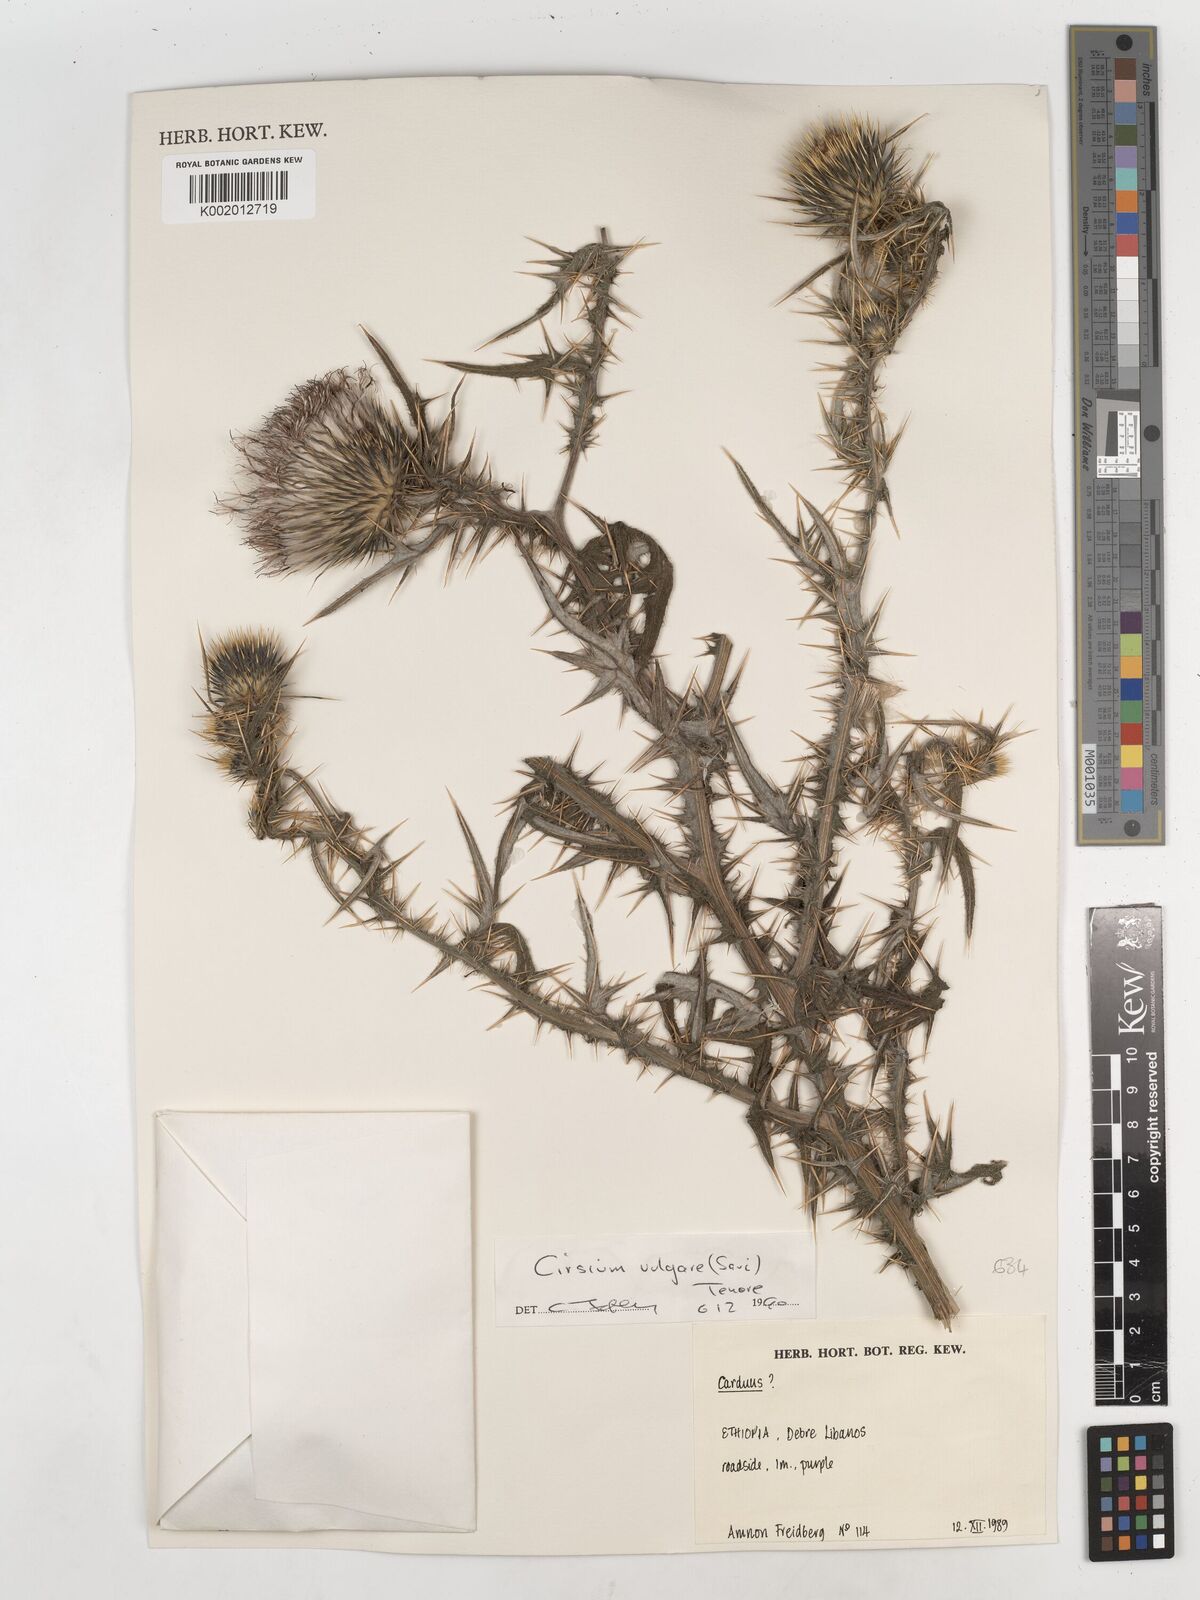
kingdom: Plantae
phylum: Tracheophyta
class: Magnoliopsida
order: Asterales
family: Asteraceae
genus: Cirsium
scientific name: Cirsium vulgare
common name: Bull thistle
